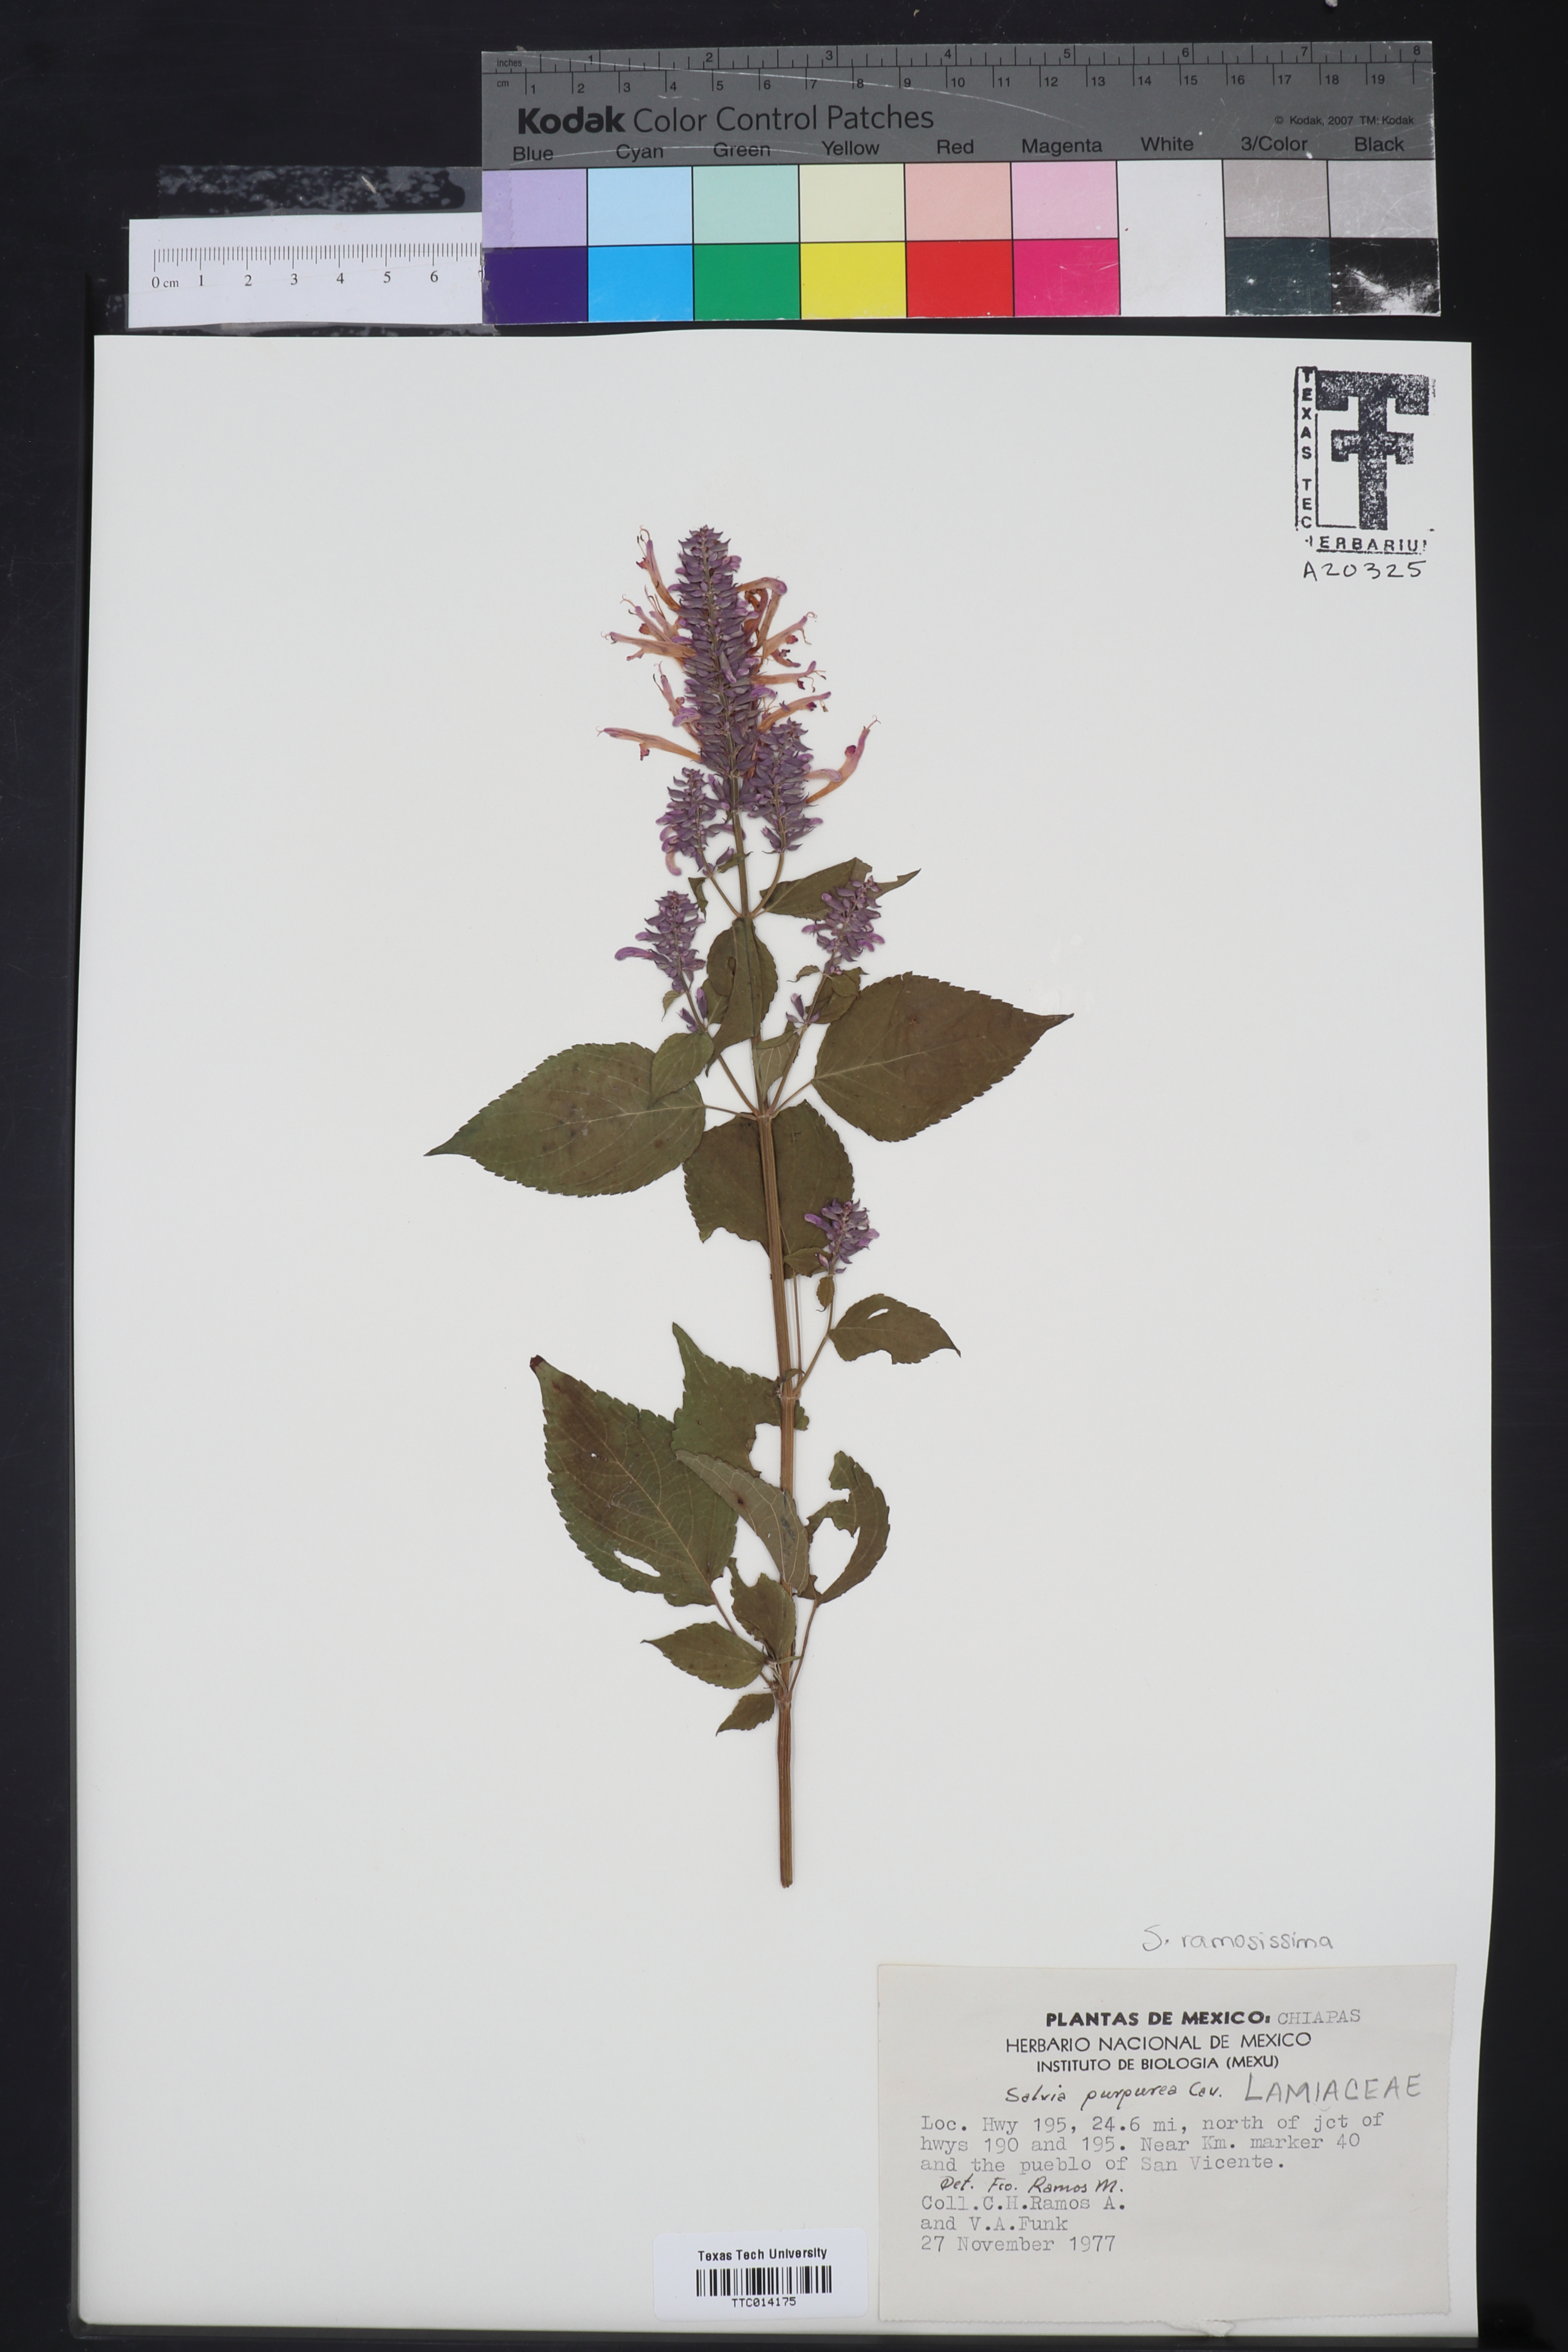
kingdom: Plantae
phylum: Tracheophyta
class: Magnoliopsida
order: Lamiales
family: Lamiaceae
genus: Salvia
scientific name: Salvia purpurea
